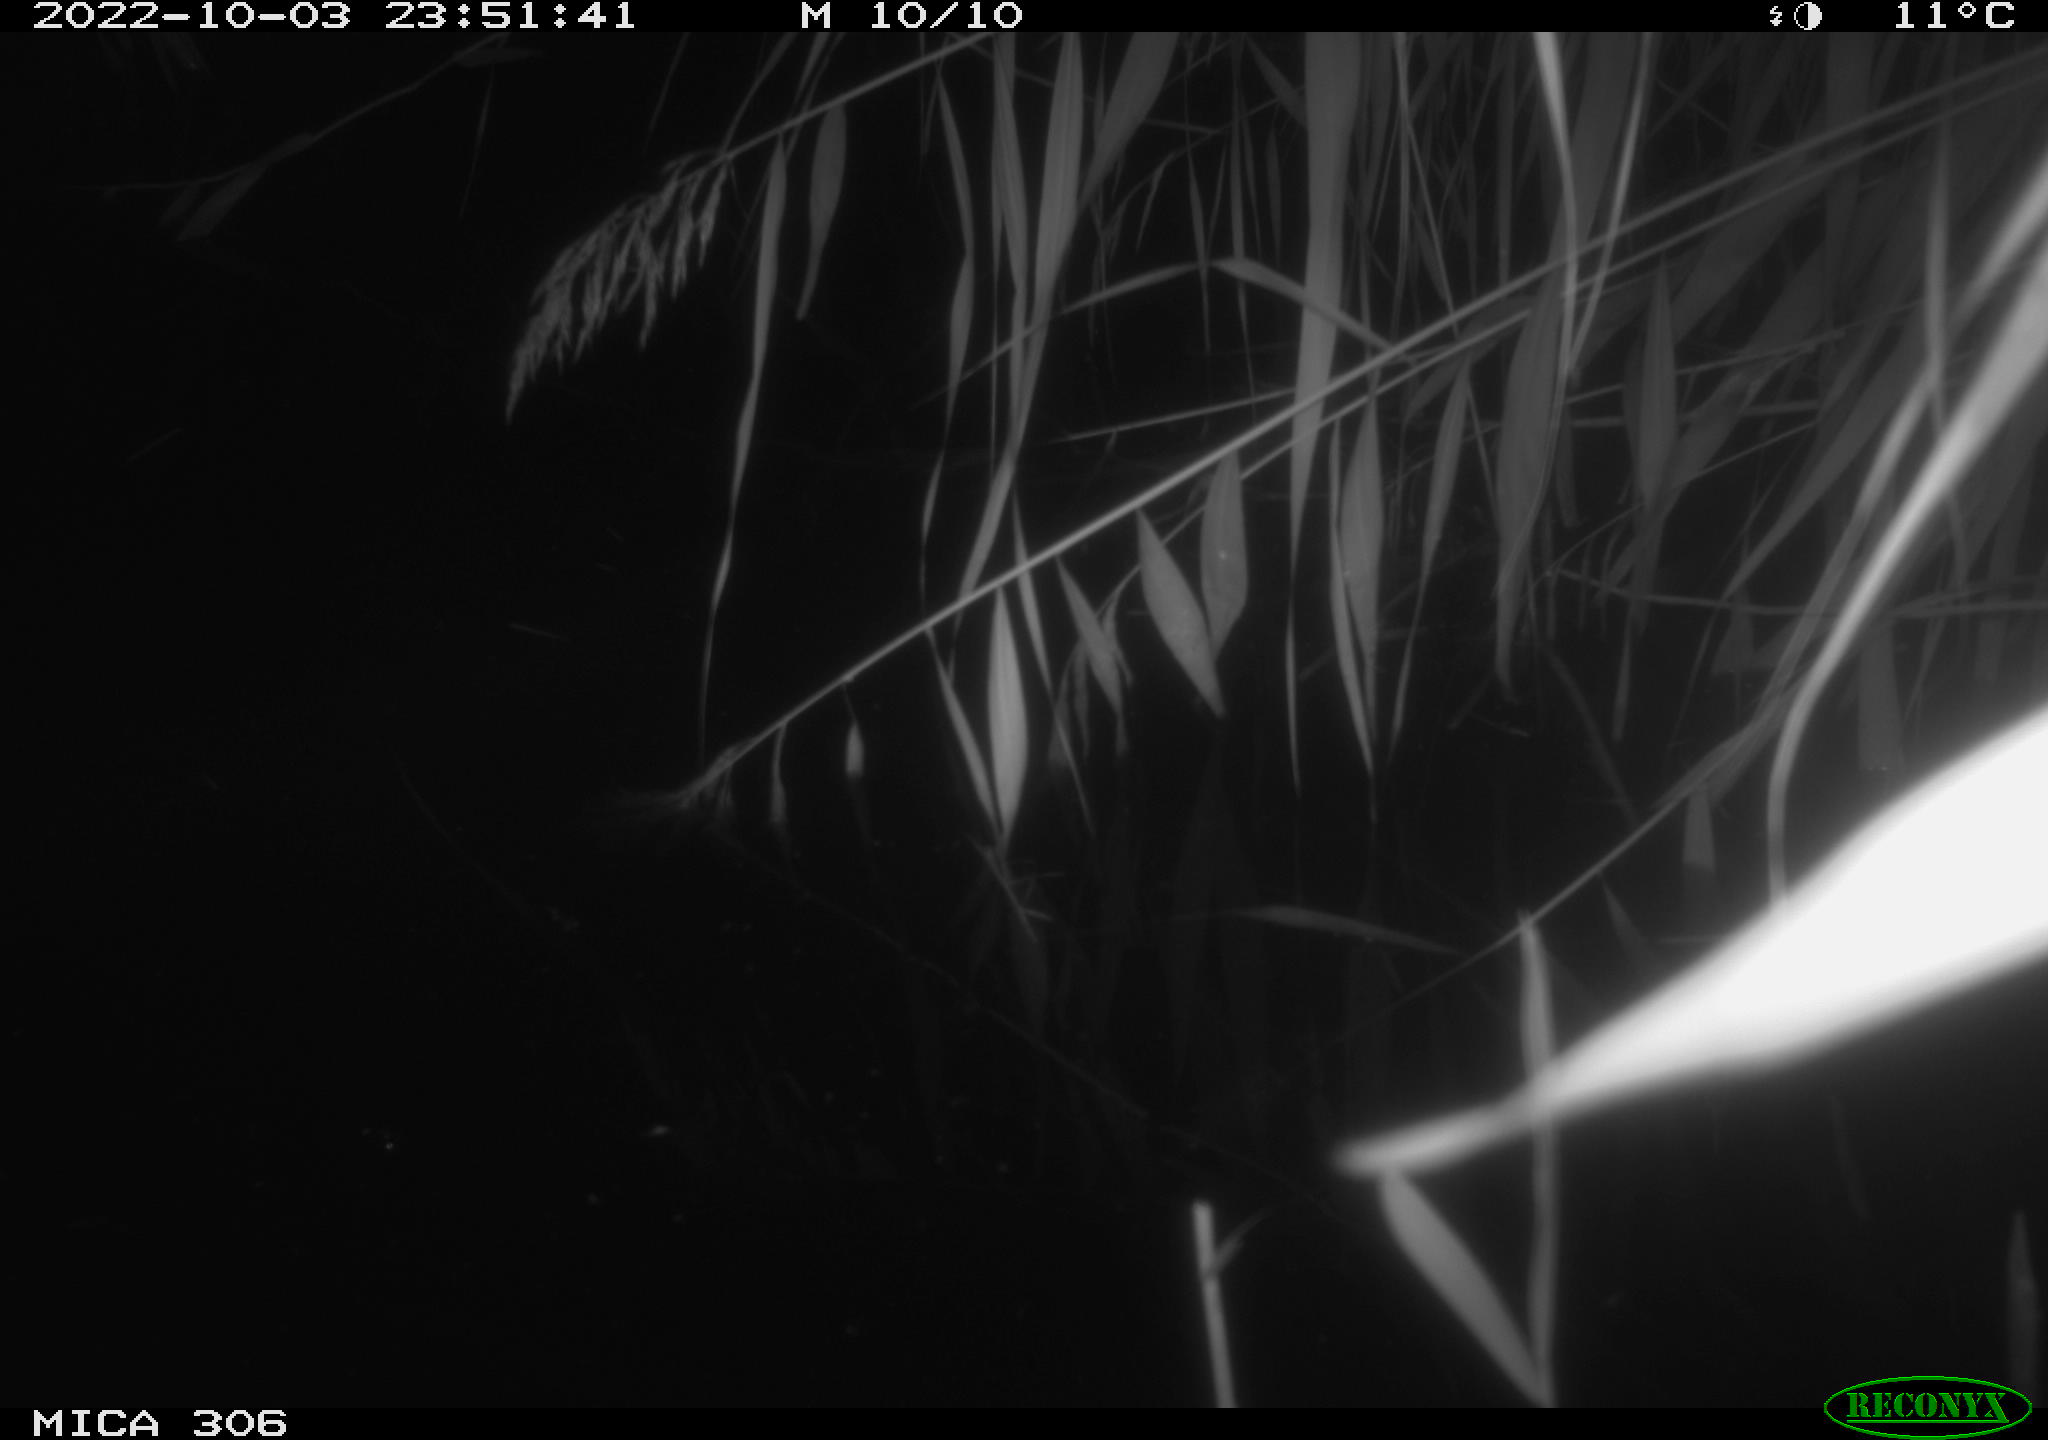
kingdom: Animalia
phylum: Chordata
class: Mammalia
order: Rodentia
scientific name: Rodentia
